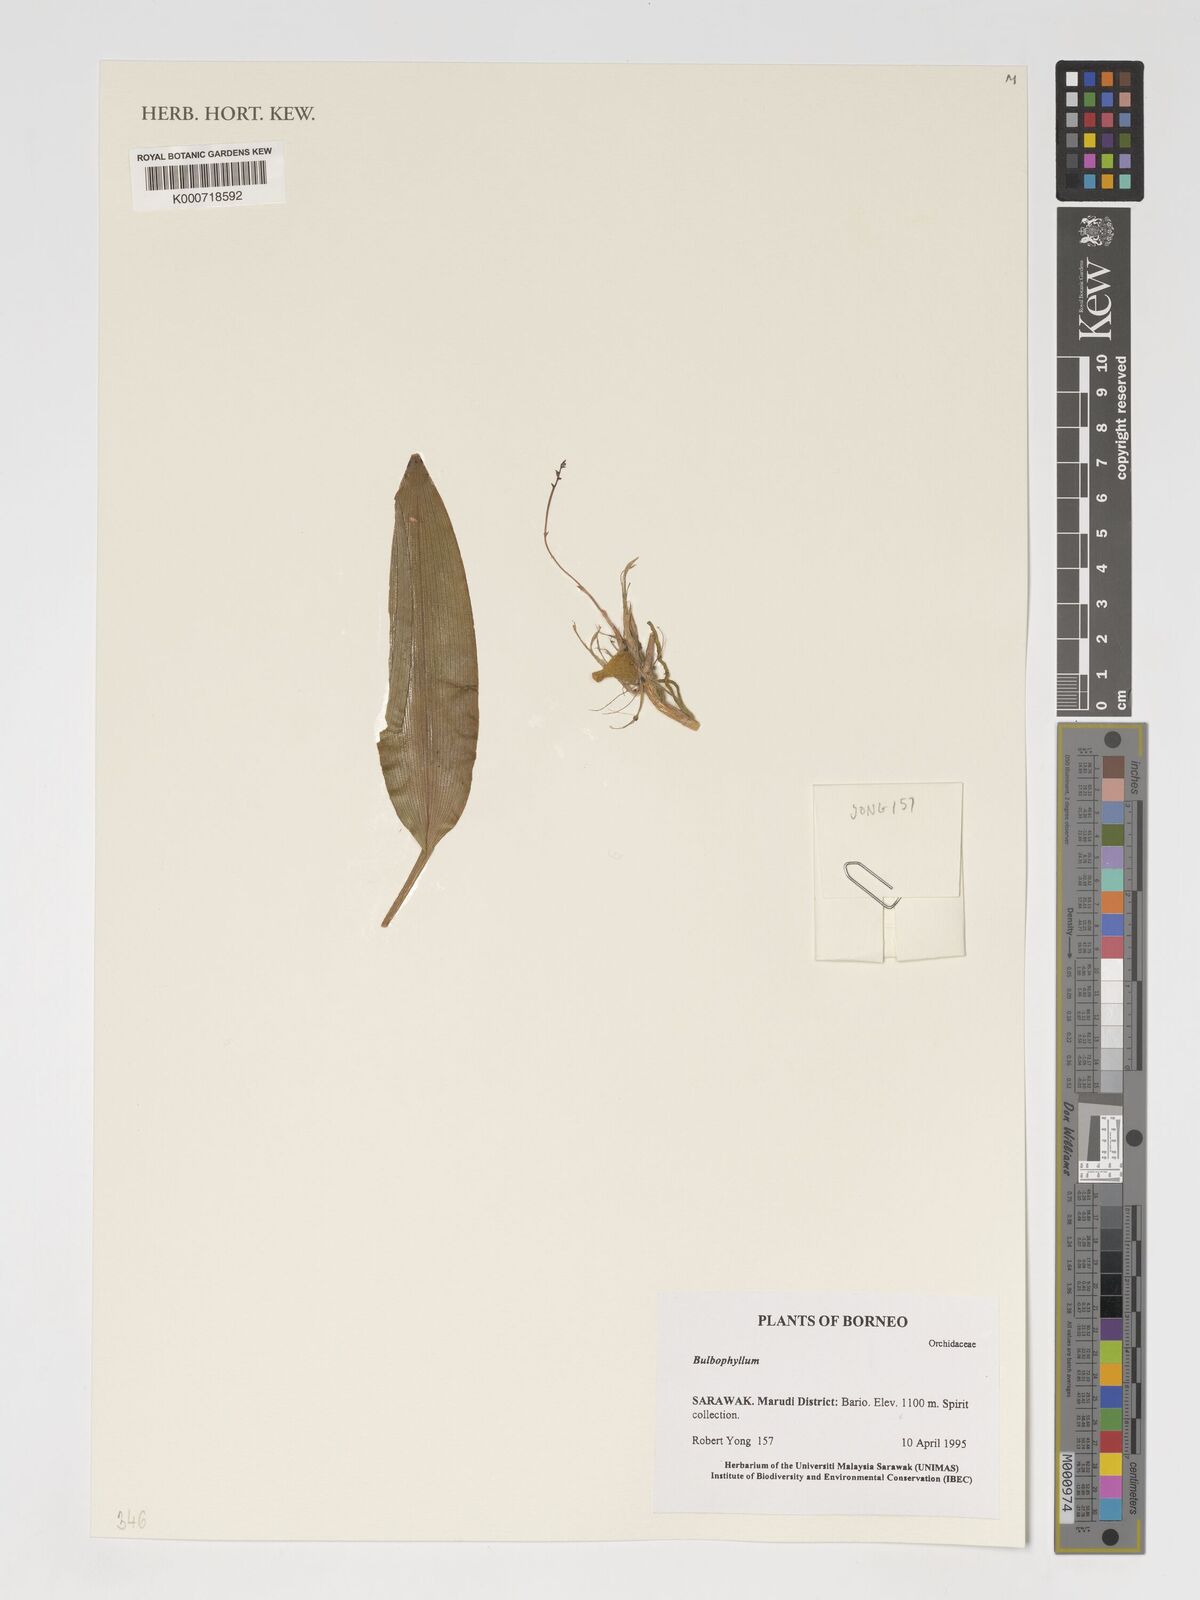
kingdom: Plantae
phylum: Tracheophyta
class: Liliopsida
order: Asparagales
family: Orchidaceae
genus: Bulbophyllum
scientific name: Bulbophyllum
